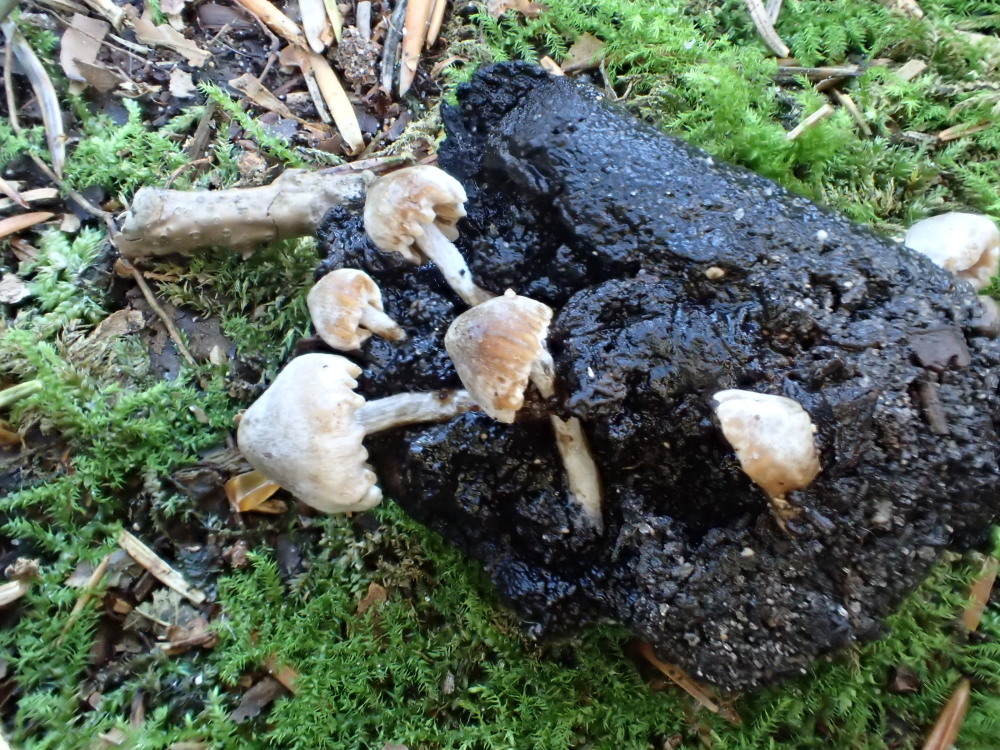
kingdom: Fungi
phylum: Basidiomycota
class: Agaricomycetes
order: Agaricales
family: Lyophyllaceae
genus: Asterophora
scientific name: Asterophora parasitica
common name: grå snyltehat
